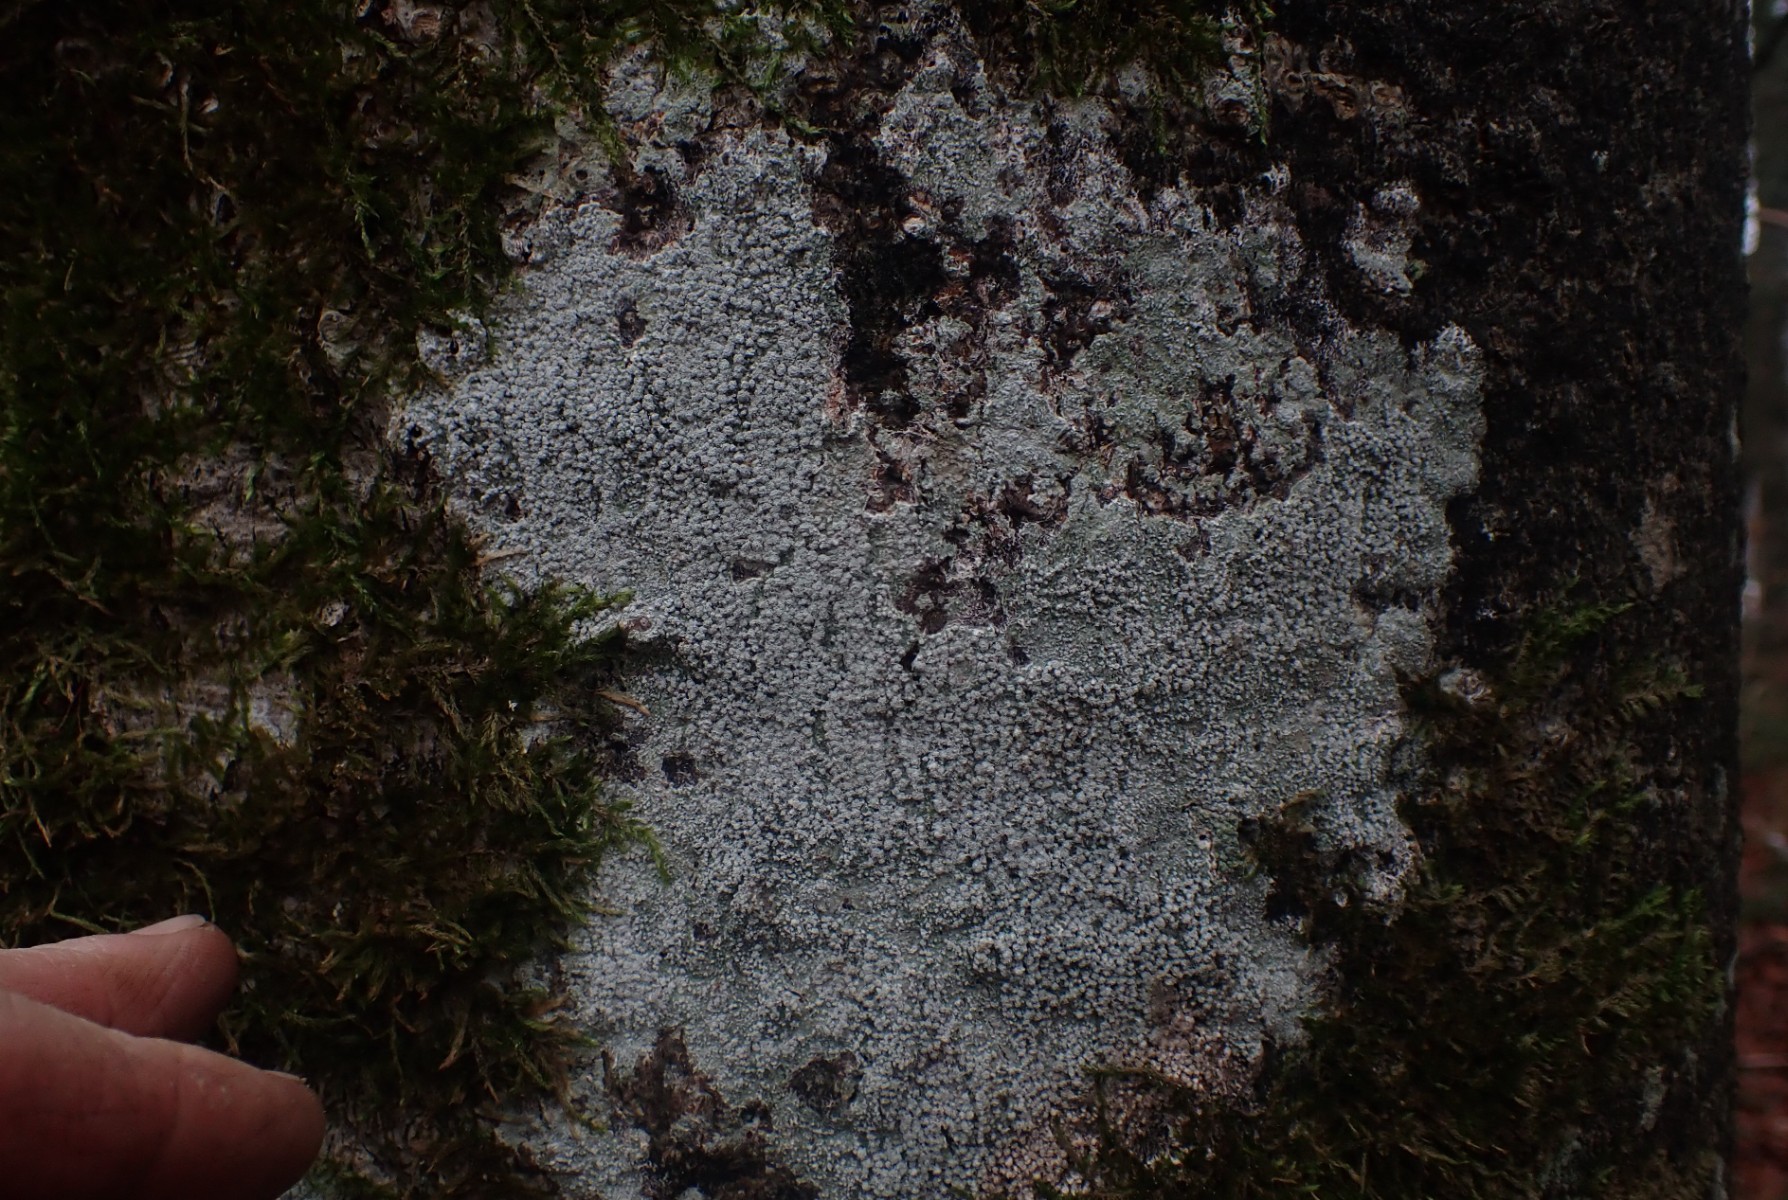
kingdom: Fungi
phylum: Ascomycota
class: Lecanoromycetes
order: Pertusariales
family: Pertusariaceae
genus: Lepra
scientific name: Lepra amara
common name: bitter prikvortelav
